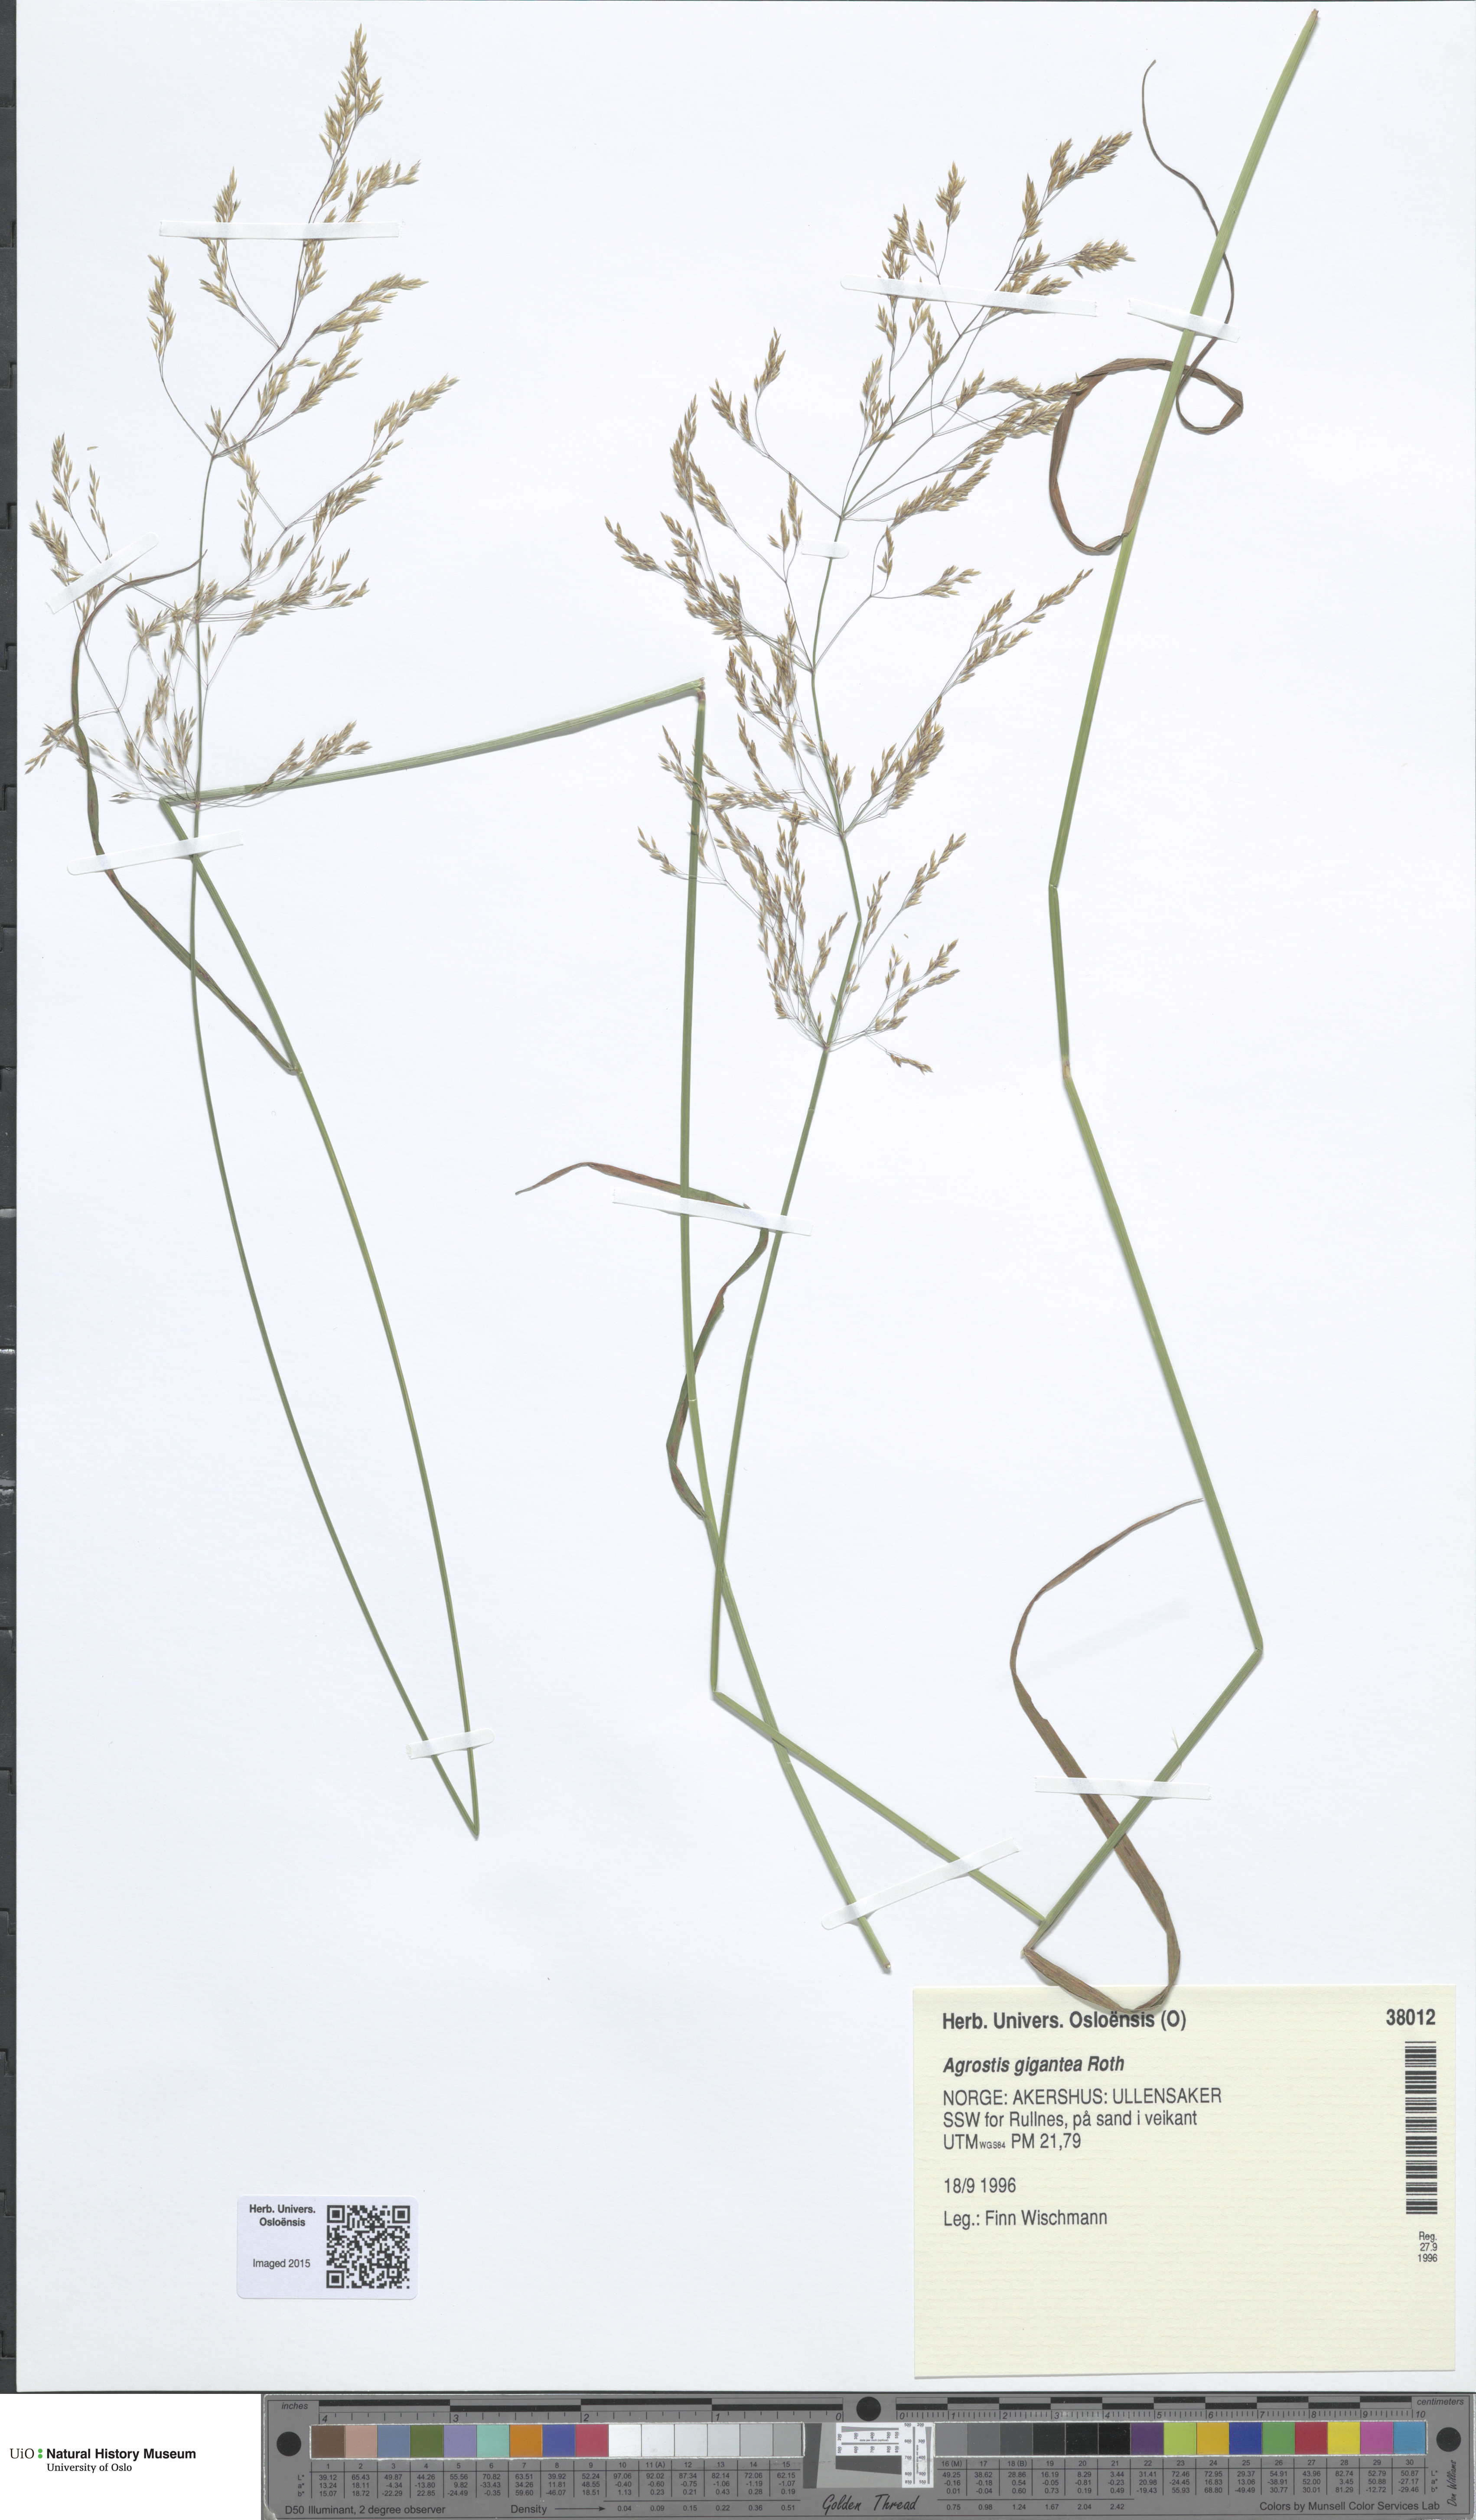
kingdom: Plantae
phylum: Tracheophyta
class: Liliopsida
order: Poales
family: Poaceae
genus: Agrostis
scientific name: Agrostis gigantea
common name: Black bent
